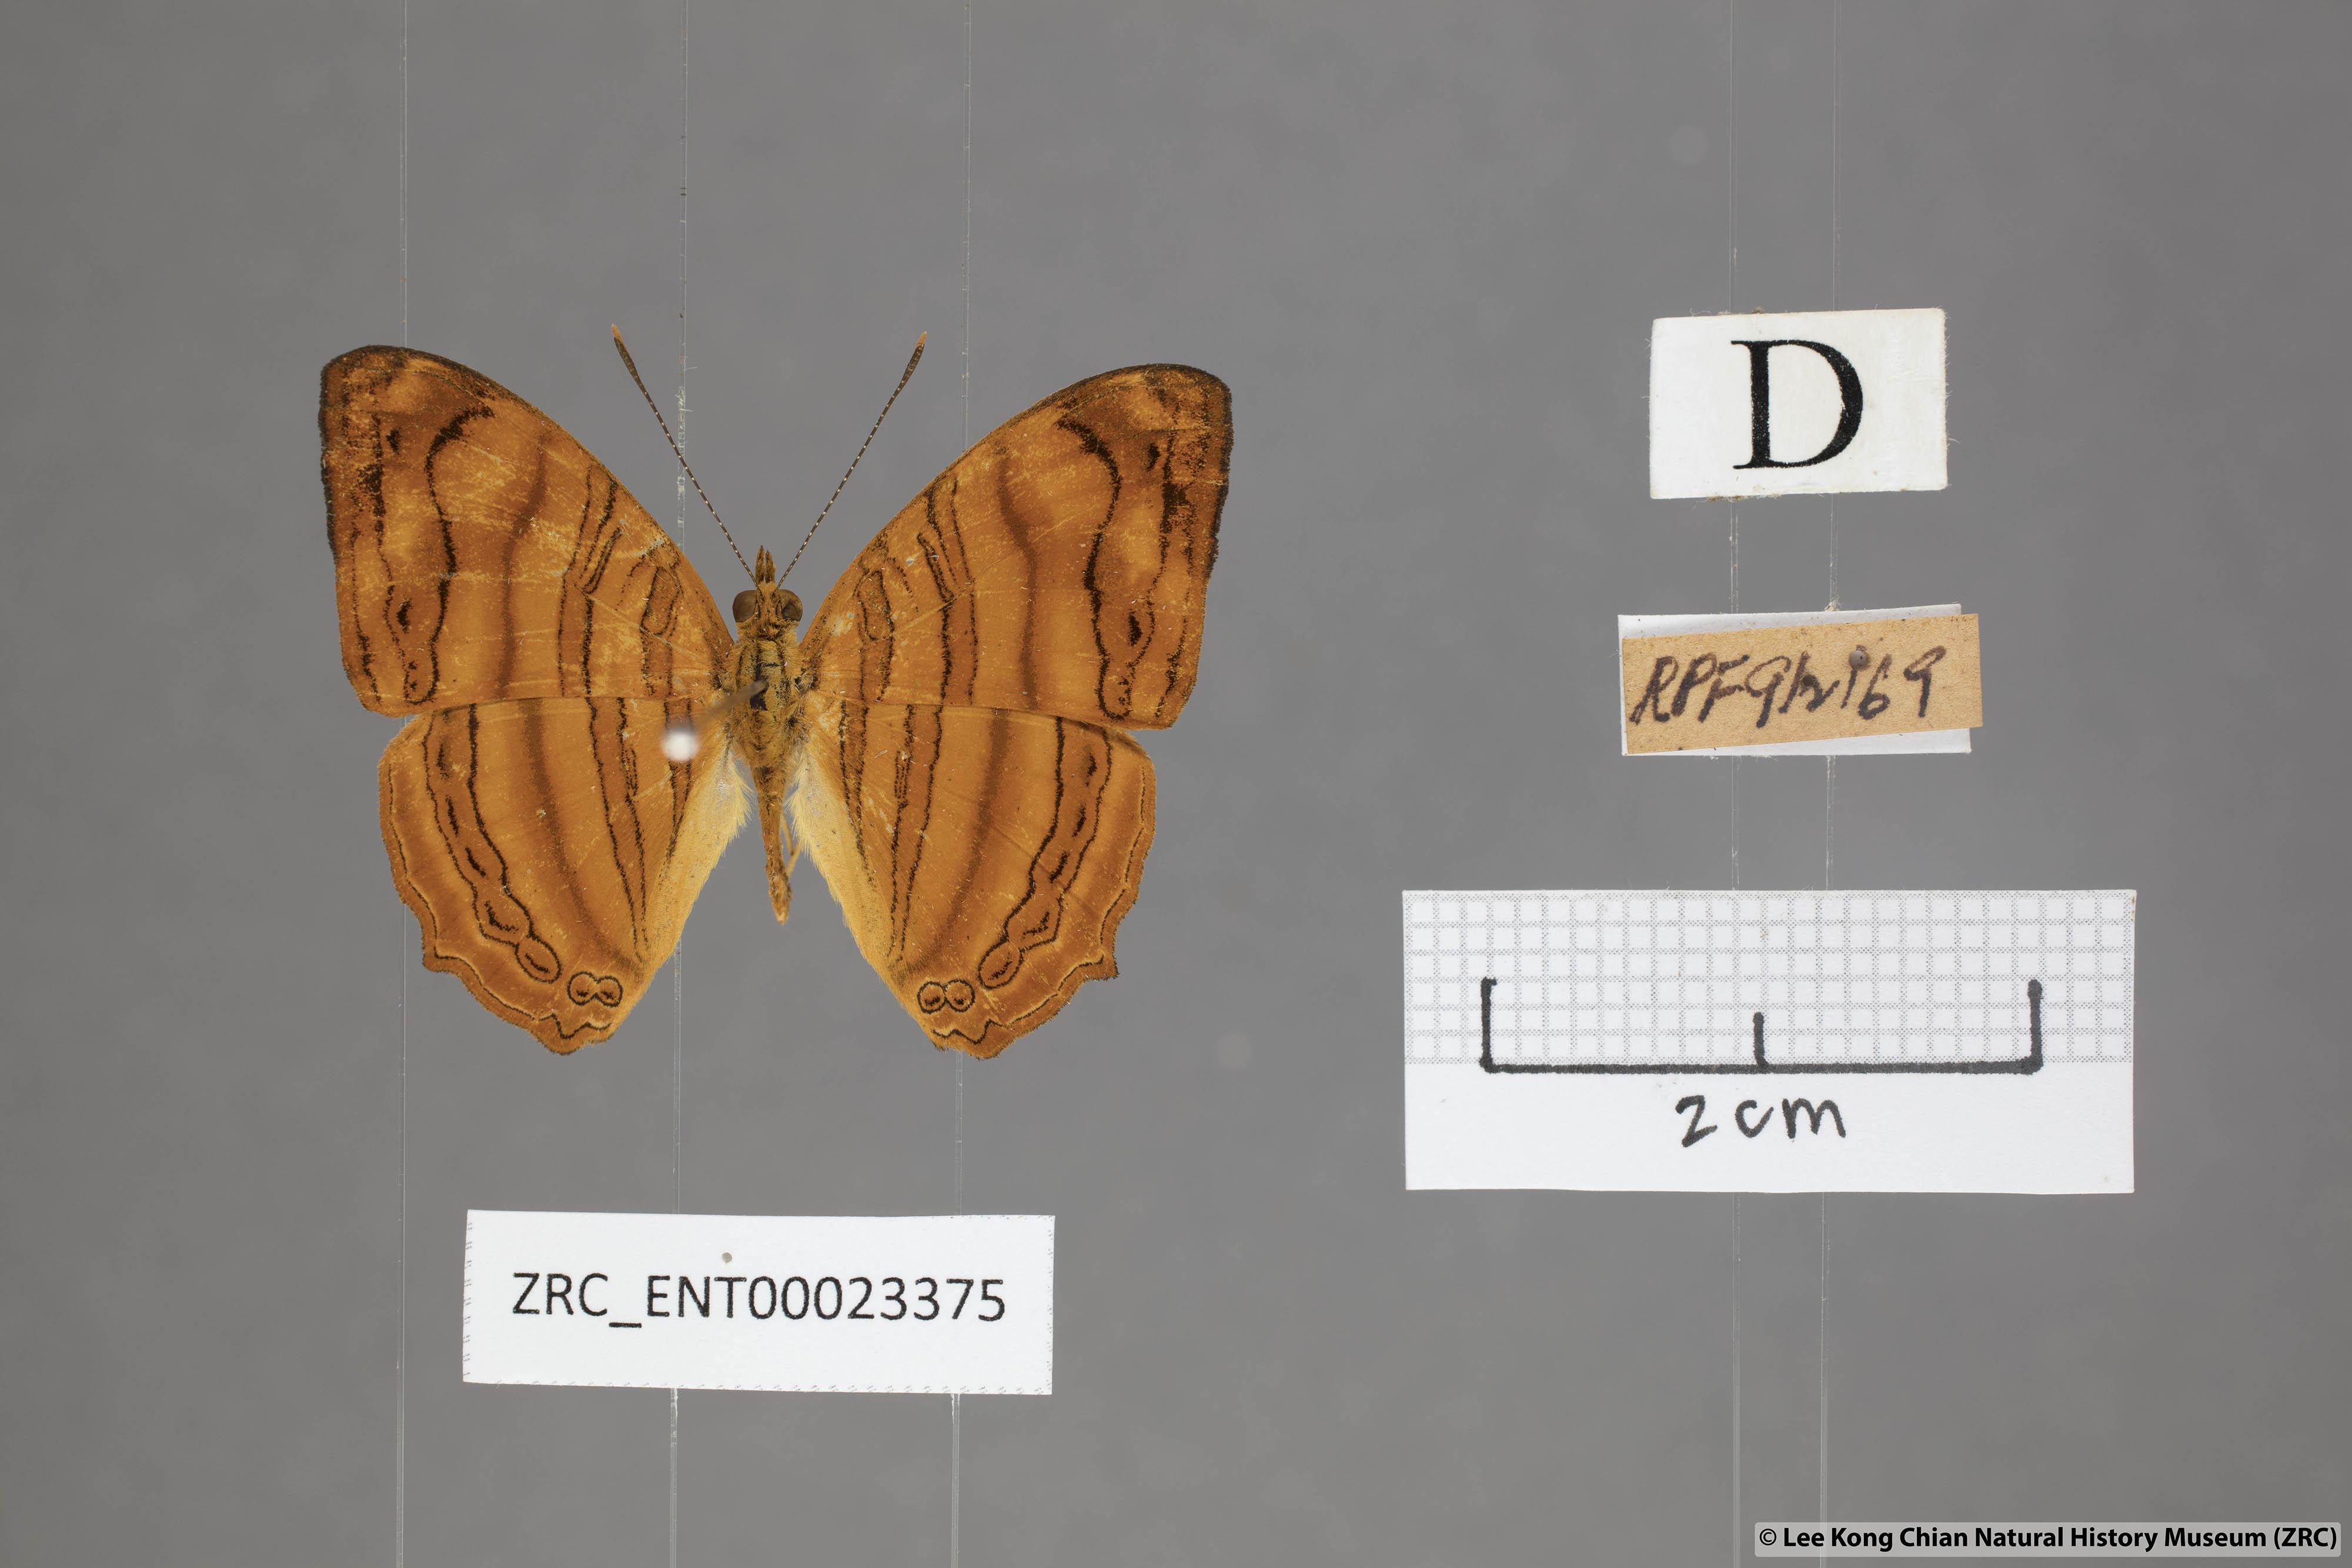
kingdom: Animalia
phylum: Arthropoda
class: Insecta
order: Lepidoptera
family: Nymphalidae
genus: Chersonesia
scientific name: Chersonesia rahria
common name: Wavy maplet
